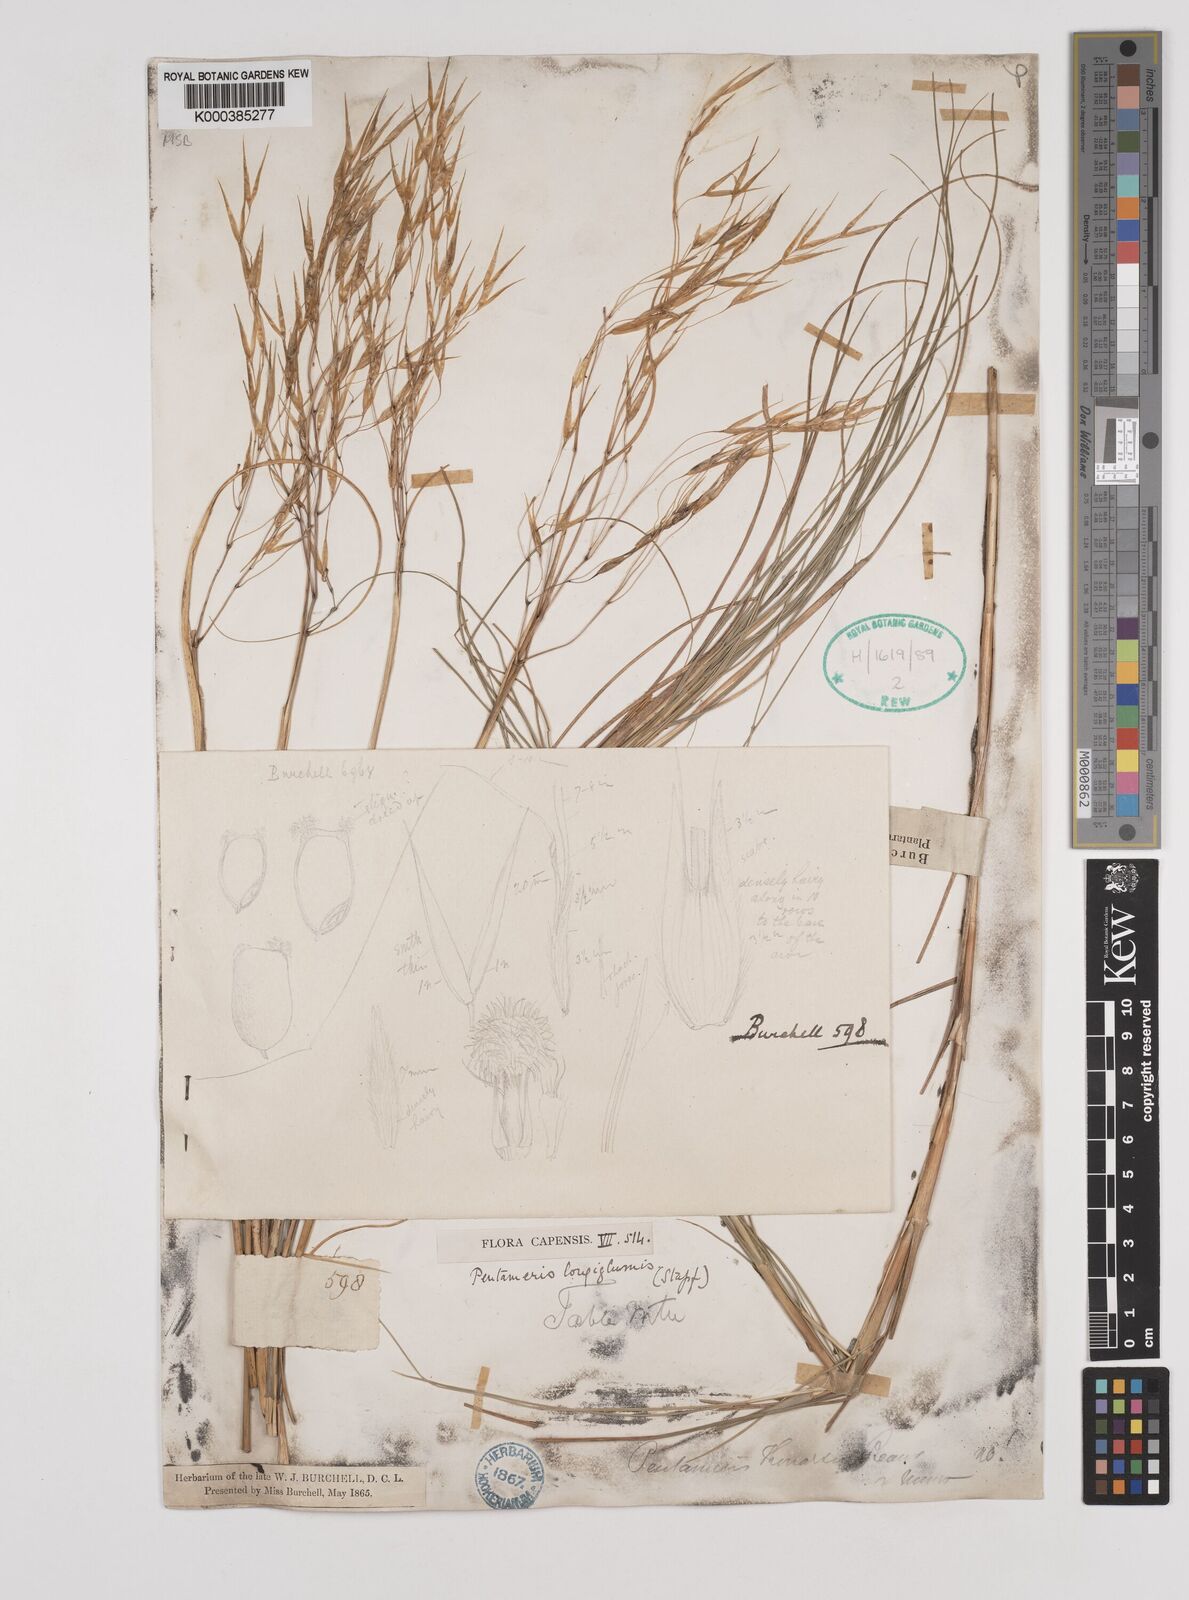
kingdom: Plantae
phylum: Tracheophyta
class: Liliopsida
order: Poales
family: Poaceae
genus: Pentameris
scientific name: Pentameris
